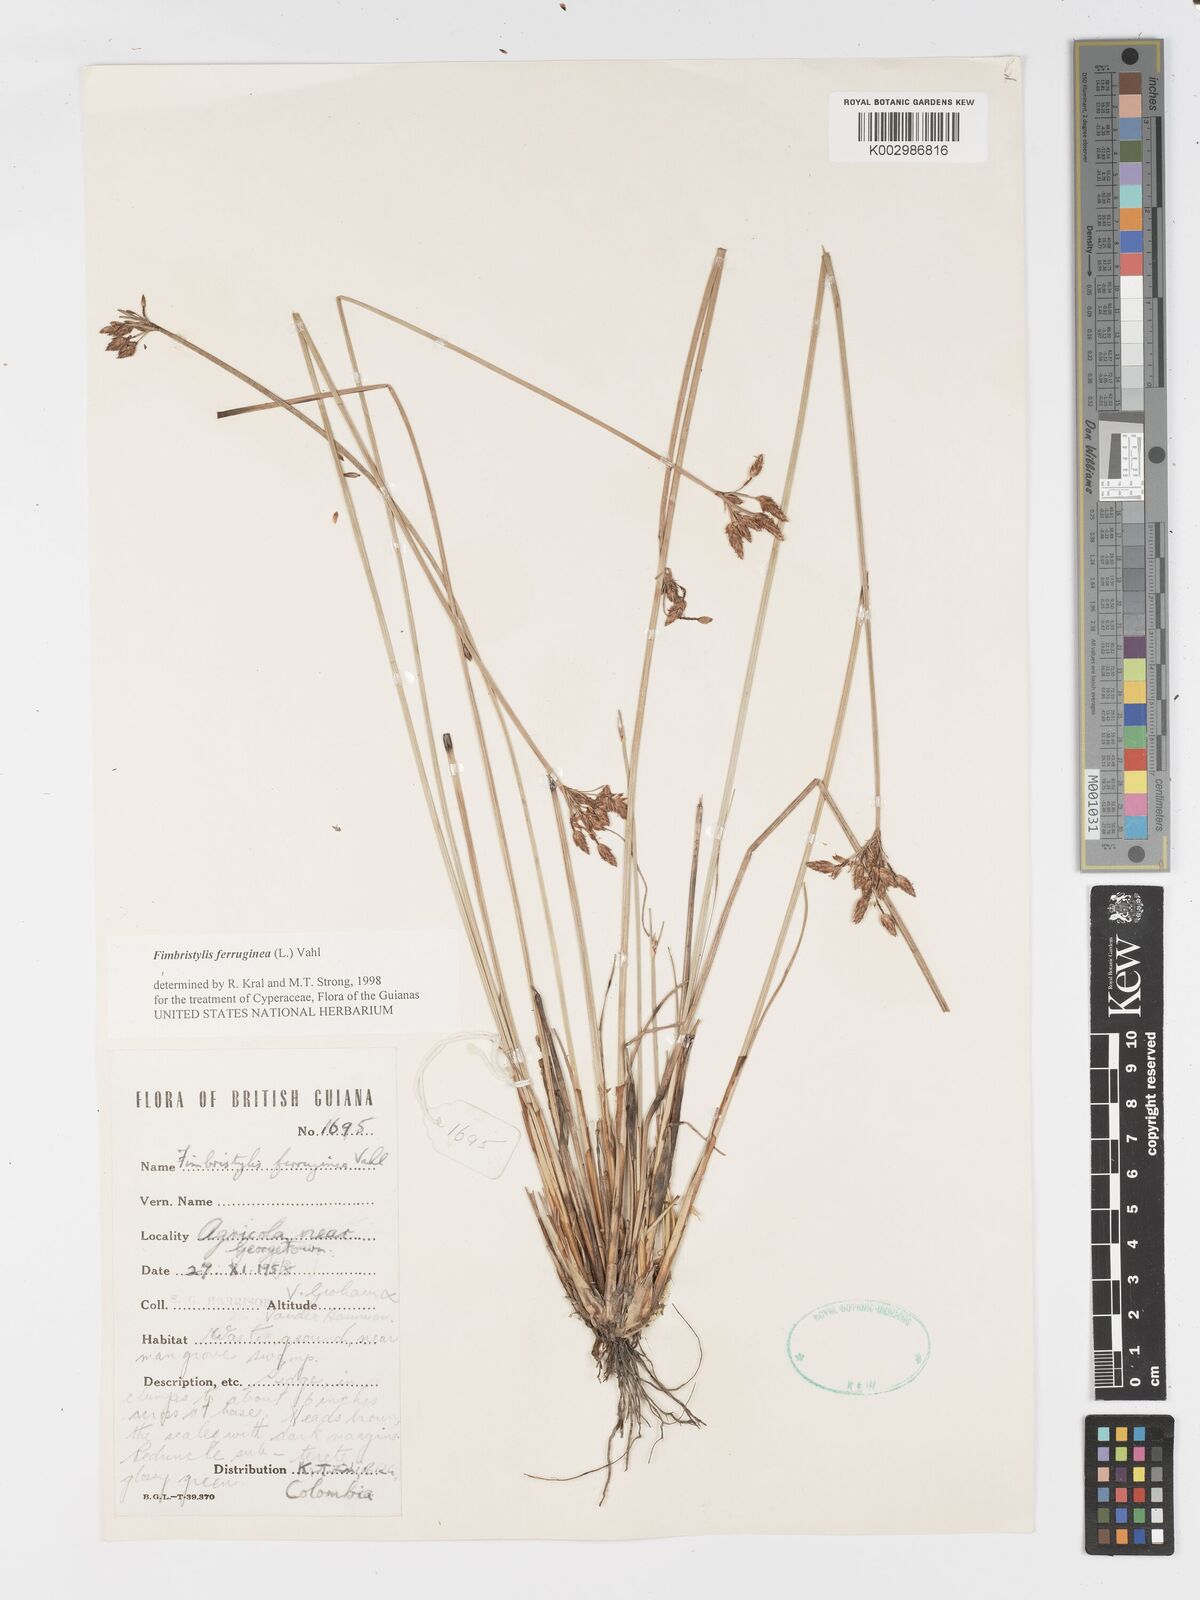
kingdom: Plantae
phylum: Tracheophyta
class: Liliopsida
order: Poales
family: Cyperaceae
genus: Fimbristylis
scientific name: Fimbristylis ferruginea
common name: West indian fimbry
